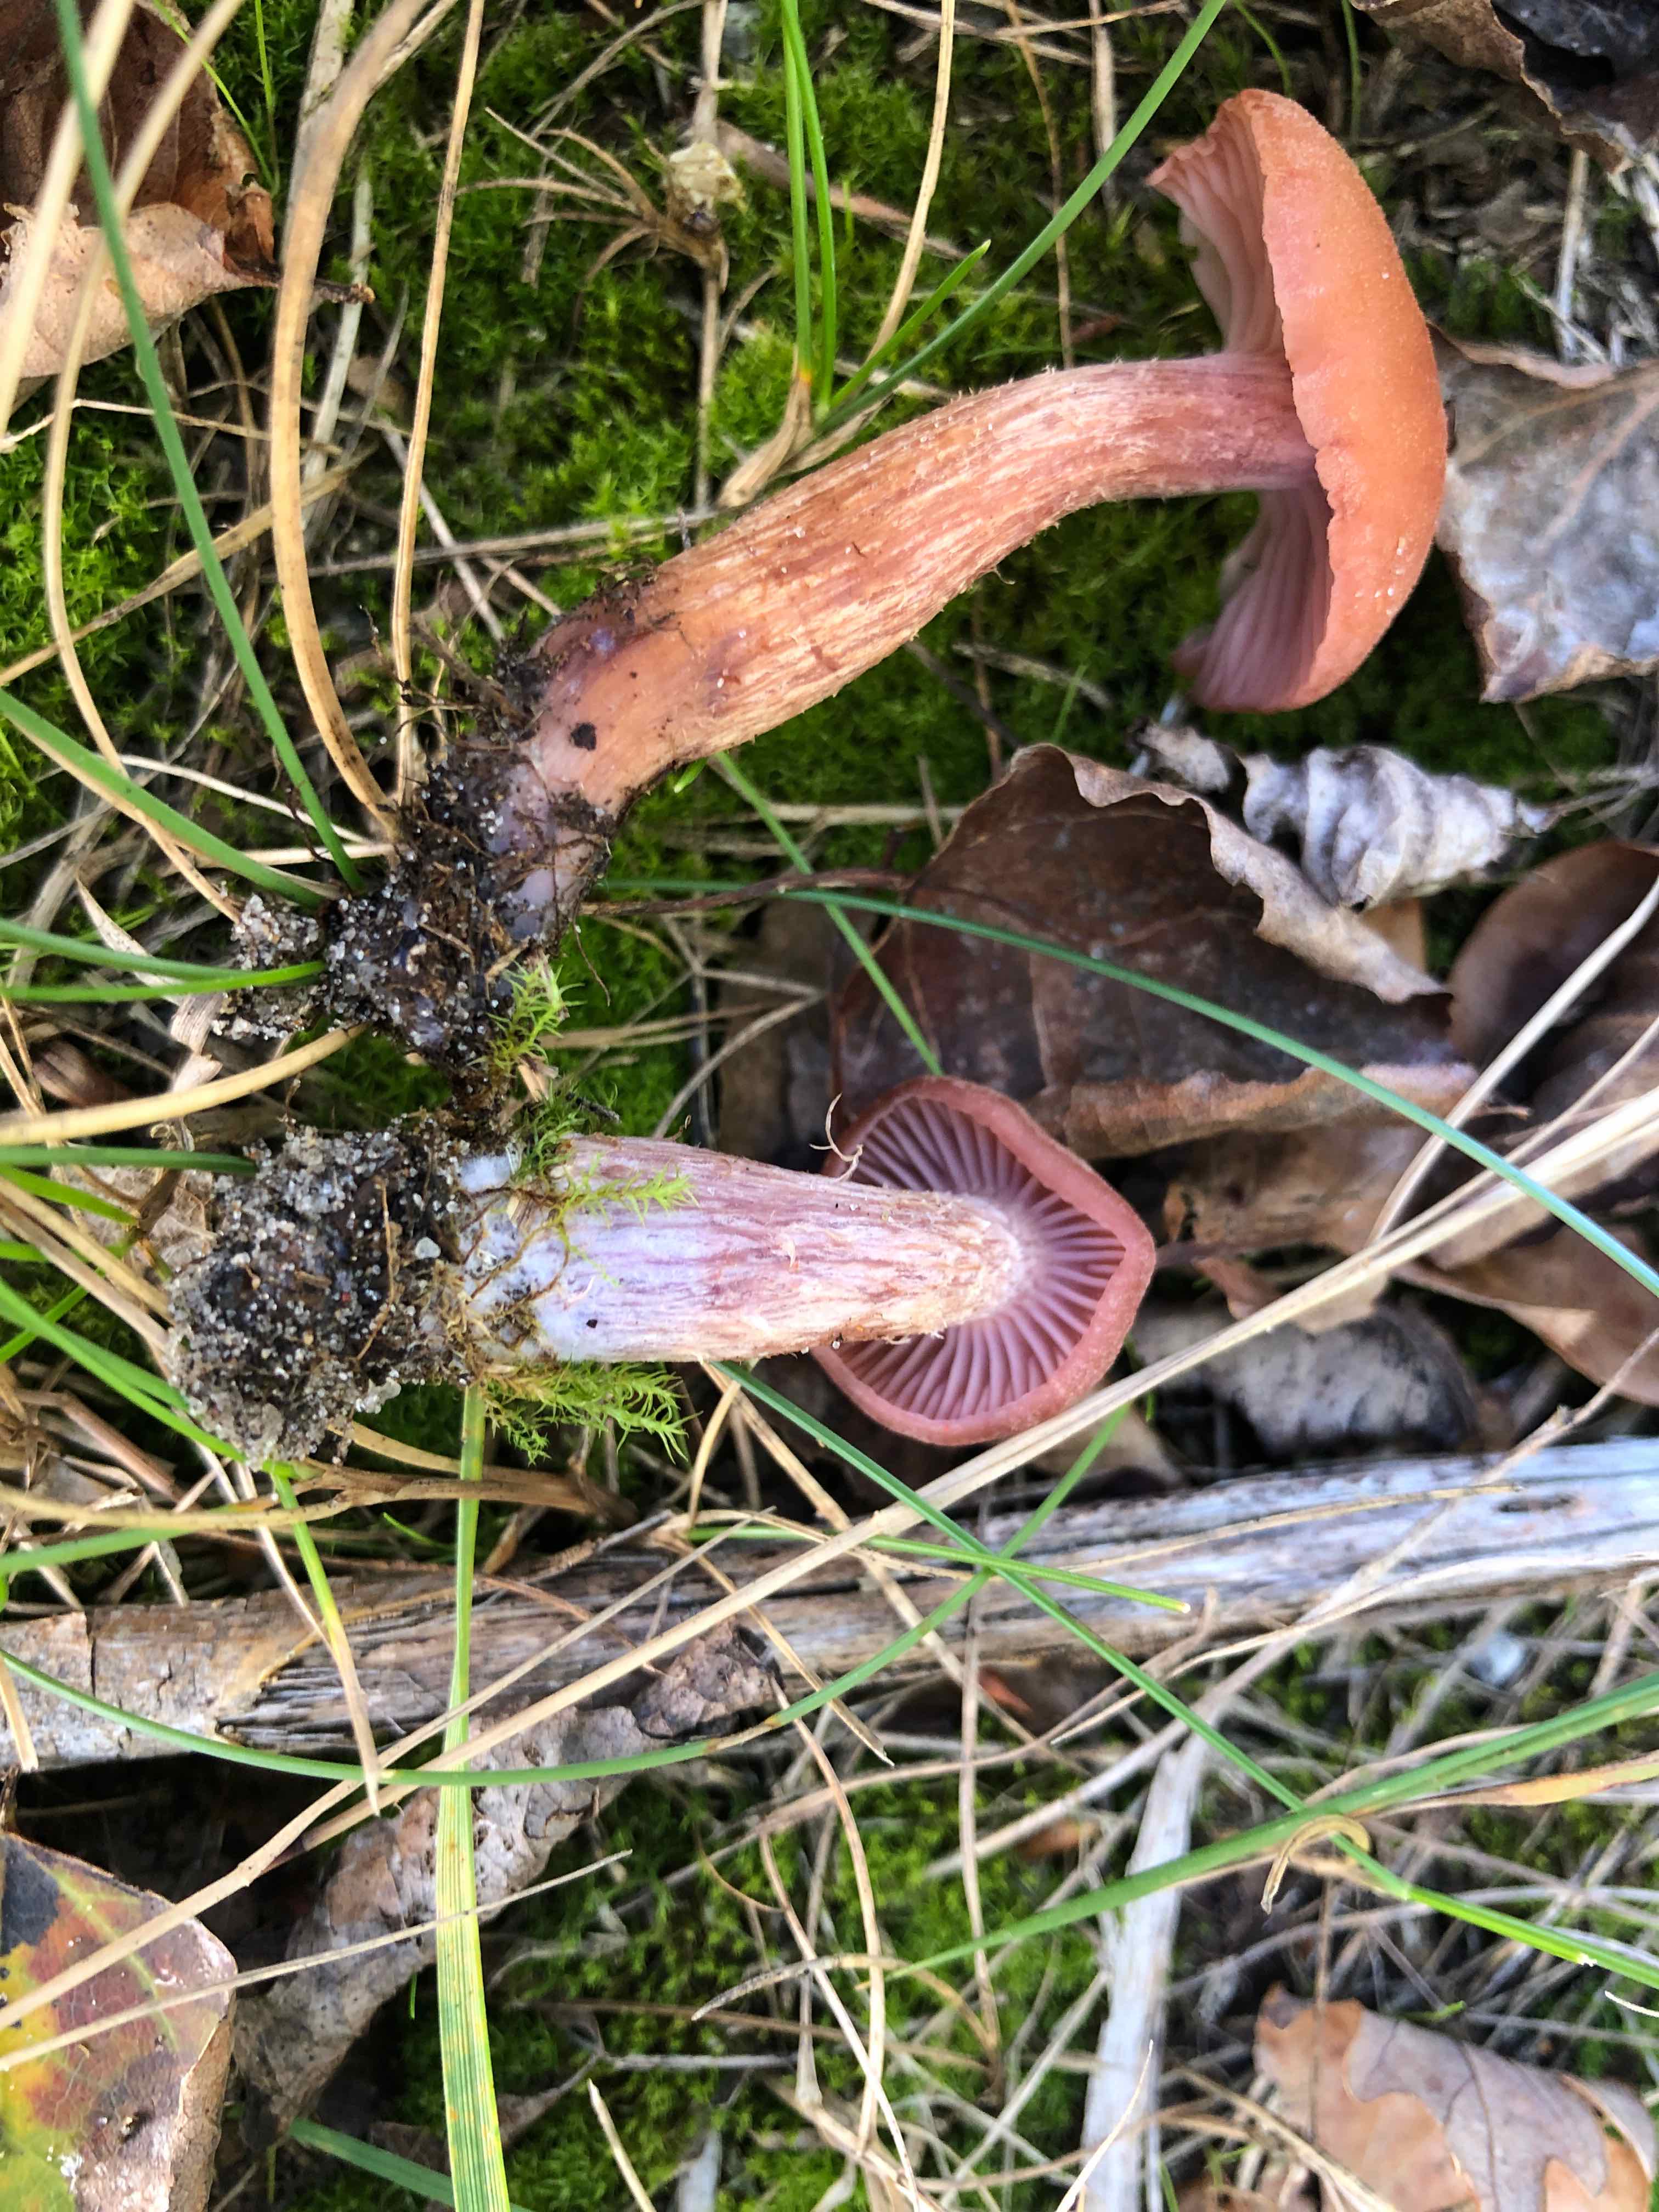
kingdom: Fungi
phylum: Basidiomycota
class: Agaricomycetes
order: Agaricales
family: Hydnangiaceae
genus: Laccaria
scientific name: Laccaria bicolor
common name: tvefarvet ametysthat
